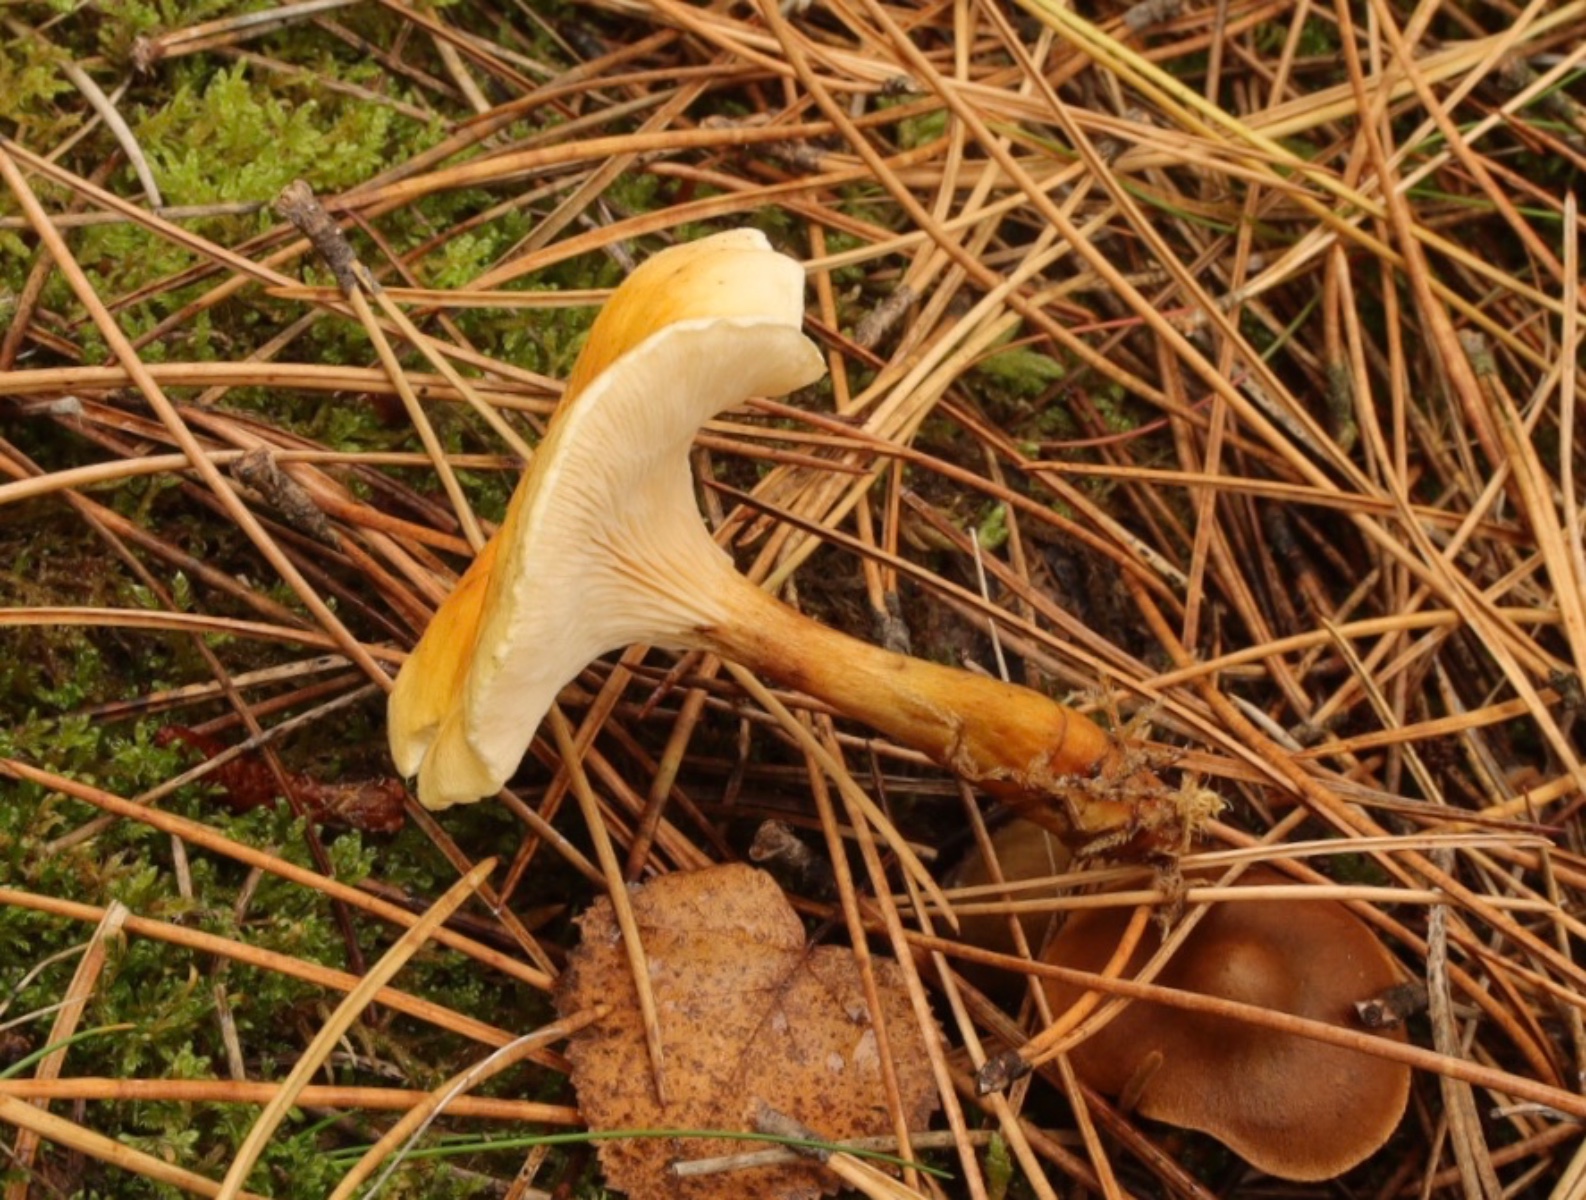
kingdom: Fungi
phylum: Basidiomycota
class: Agaricomycetes
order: Boletales
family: Hygrophoropsidaceae
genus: Hygrophoropsis
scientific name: Hygrophoropsis aurantiaca
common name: almindelig orangekantarel
